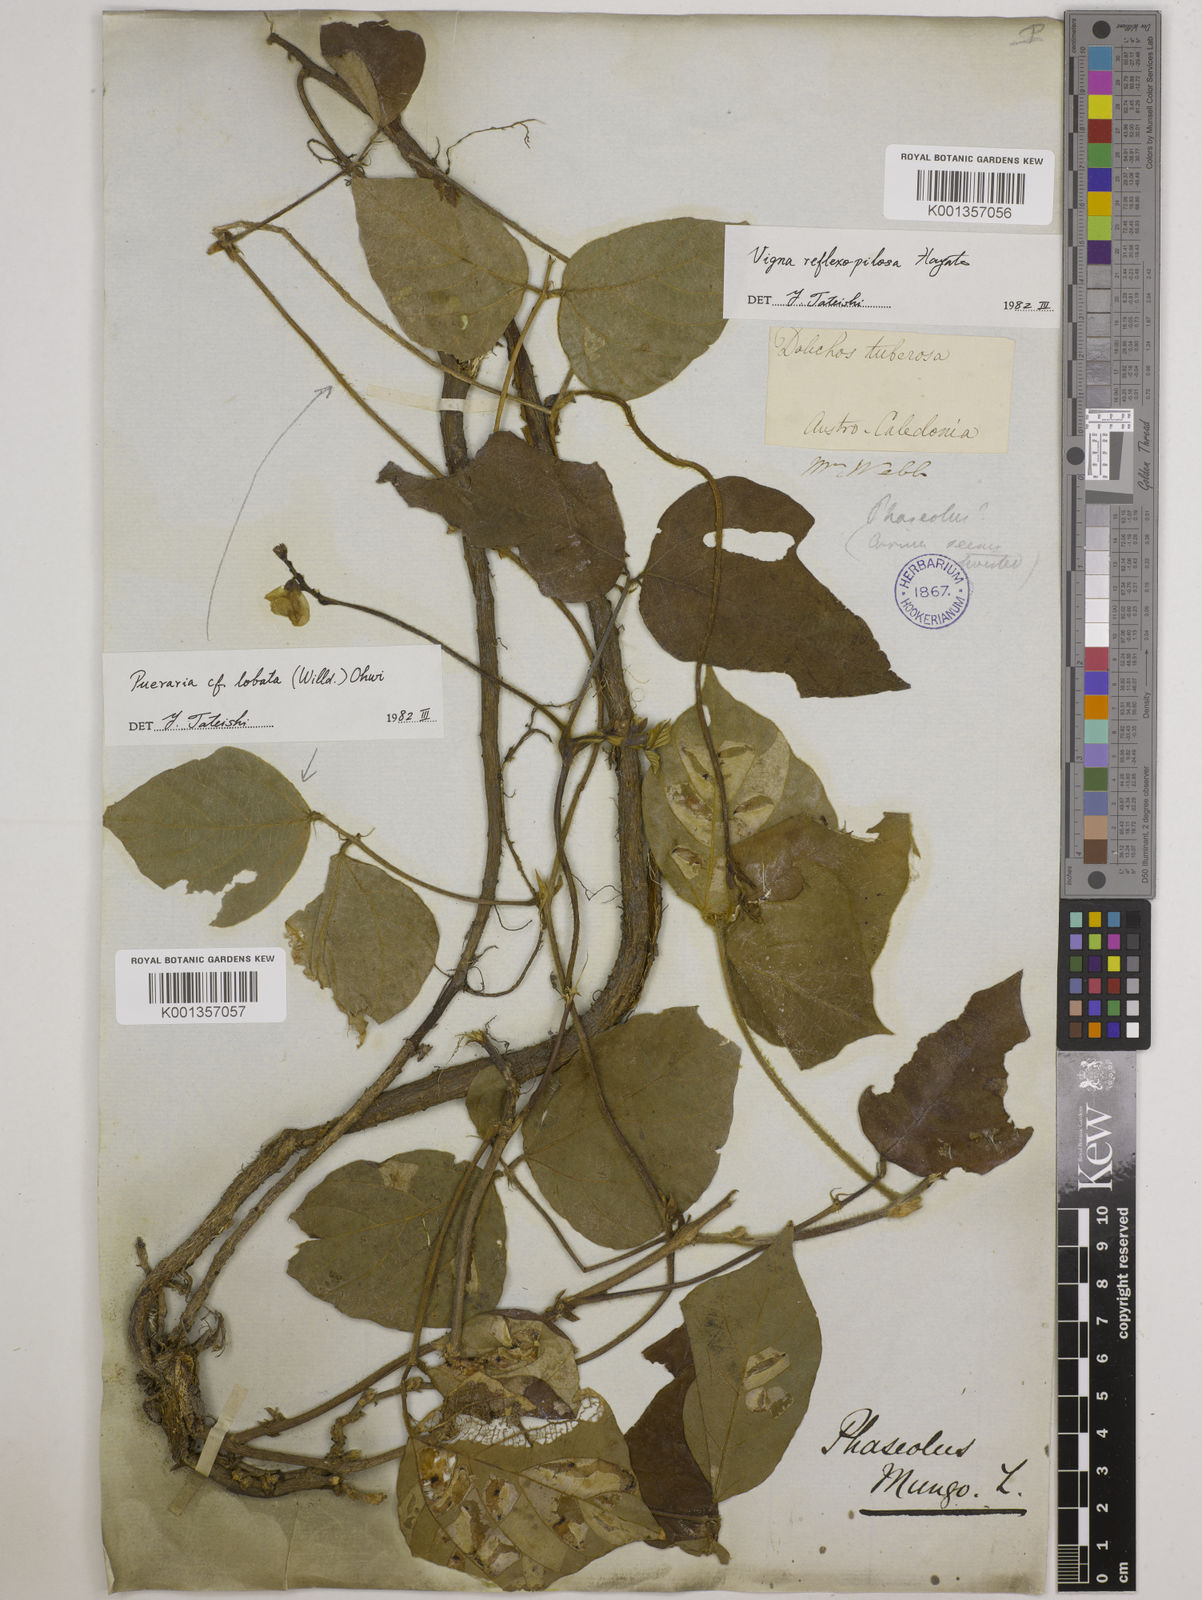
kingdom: Plantae
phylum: Tracheophyta
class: Magnoliopsida
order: Fabales
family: Fabaceae
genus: Vigna
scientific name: Vigna reflexopilosa
